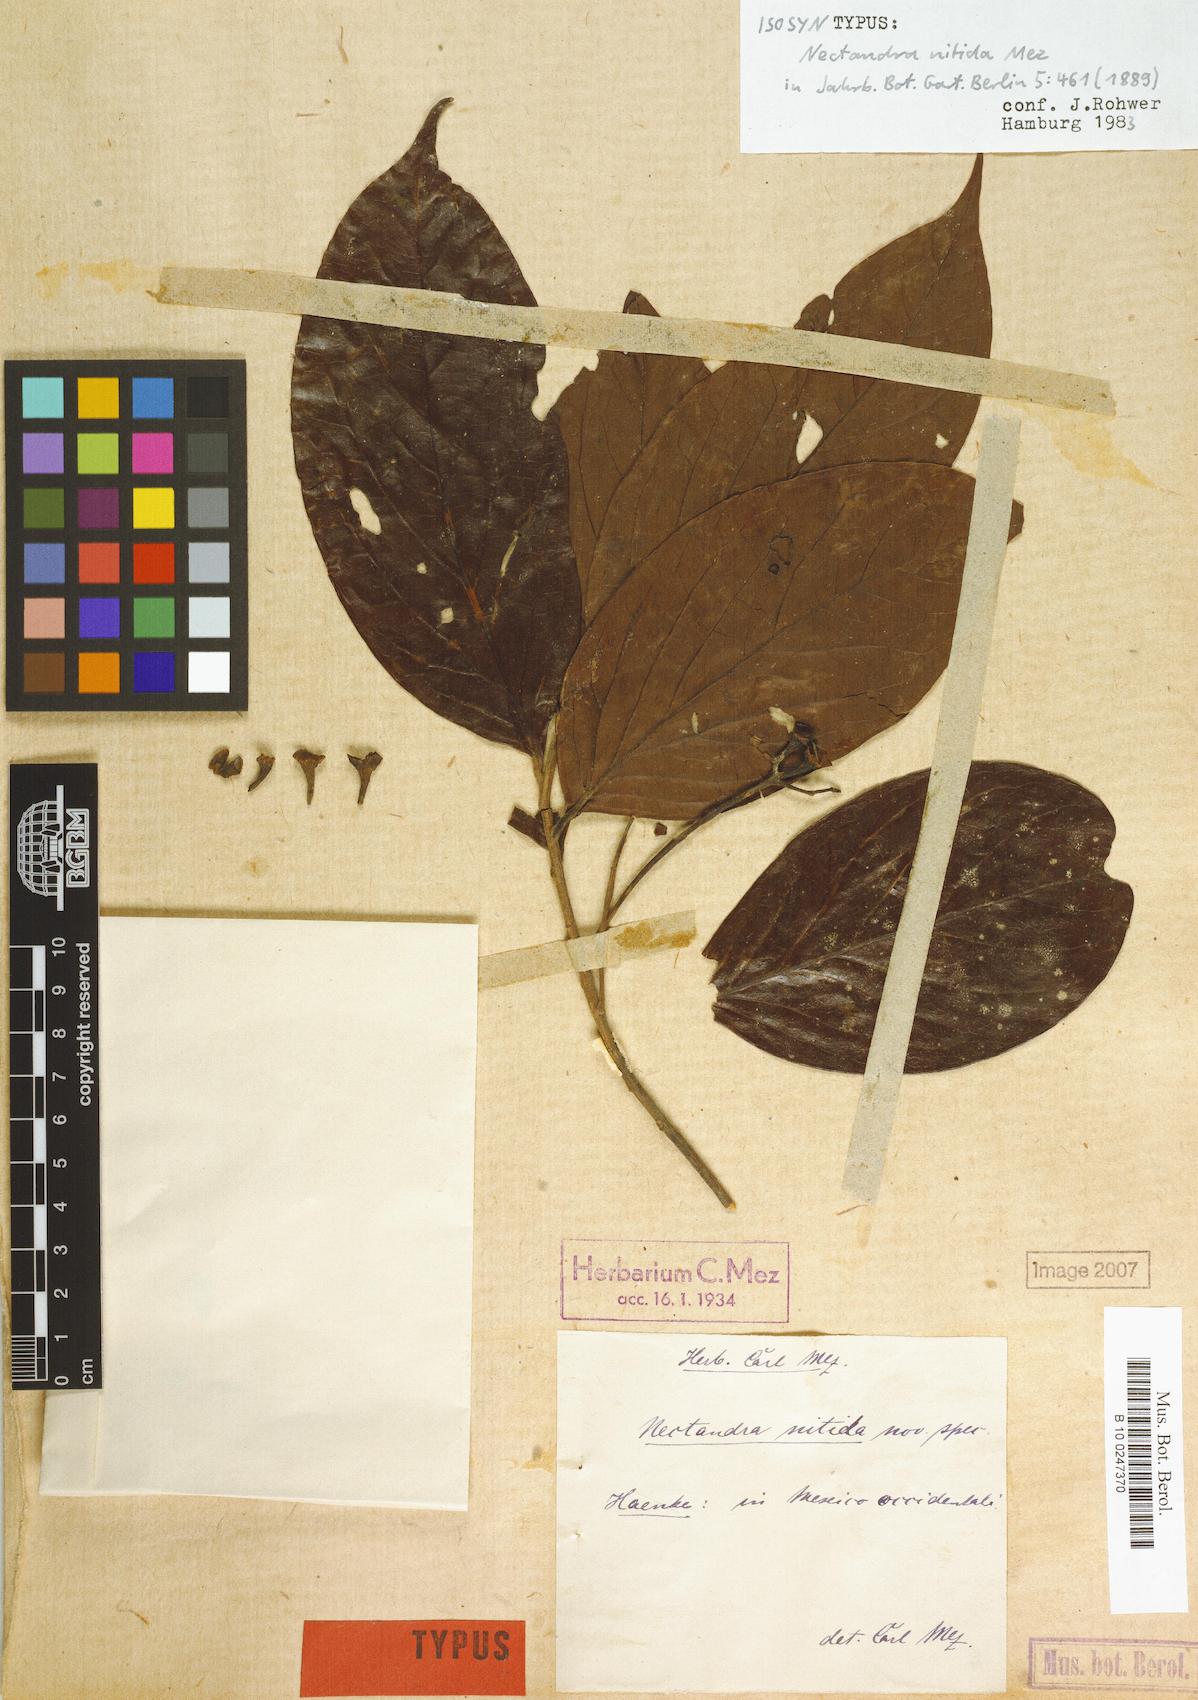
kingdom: Plantae
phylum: Tracheophyta
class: Magnoliopsida
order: Laurales
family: Lauraceae
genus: Damburneya
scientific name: Damburneya nitida
